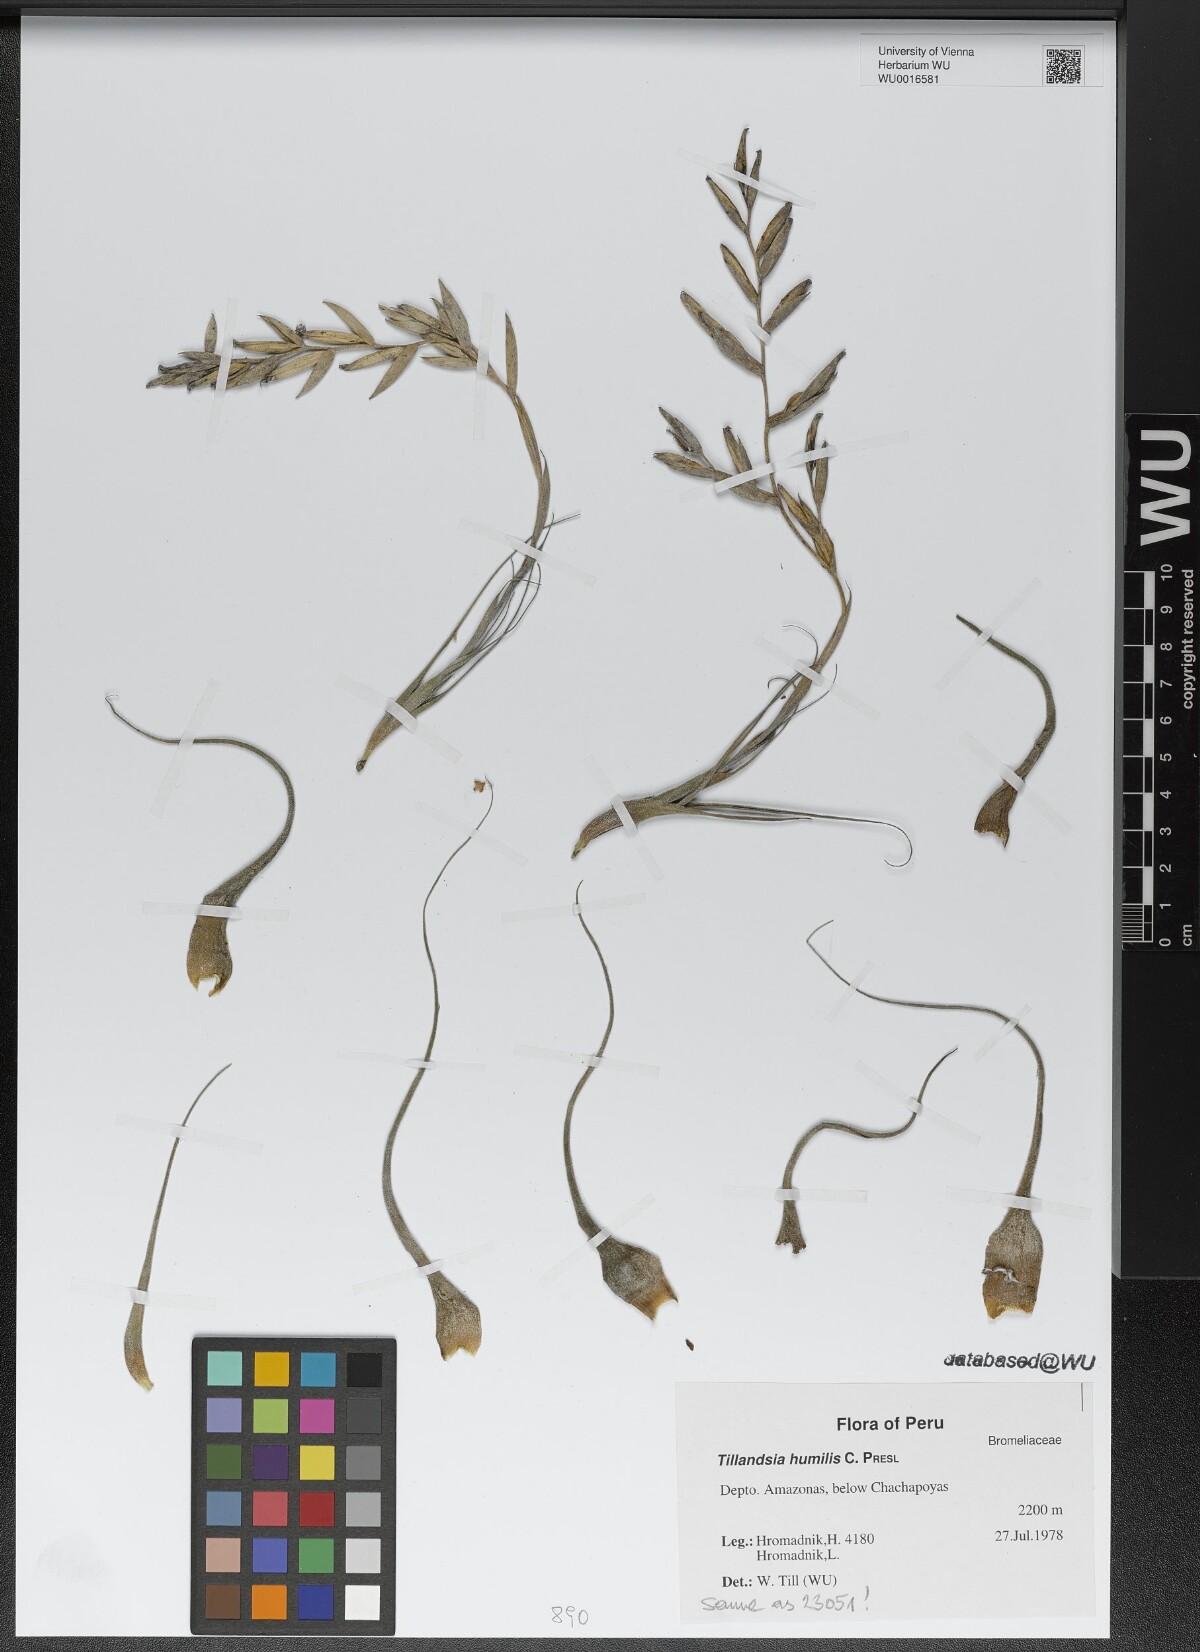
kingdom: Plantae
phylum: Tracheophyta
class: Liliopsida
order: Poales
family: Bromeliaceae
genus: Tillandsia
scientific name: Tillandsia humilis
